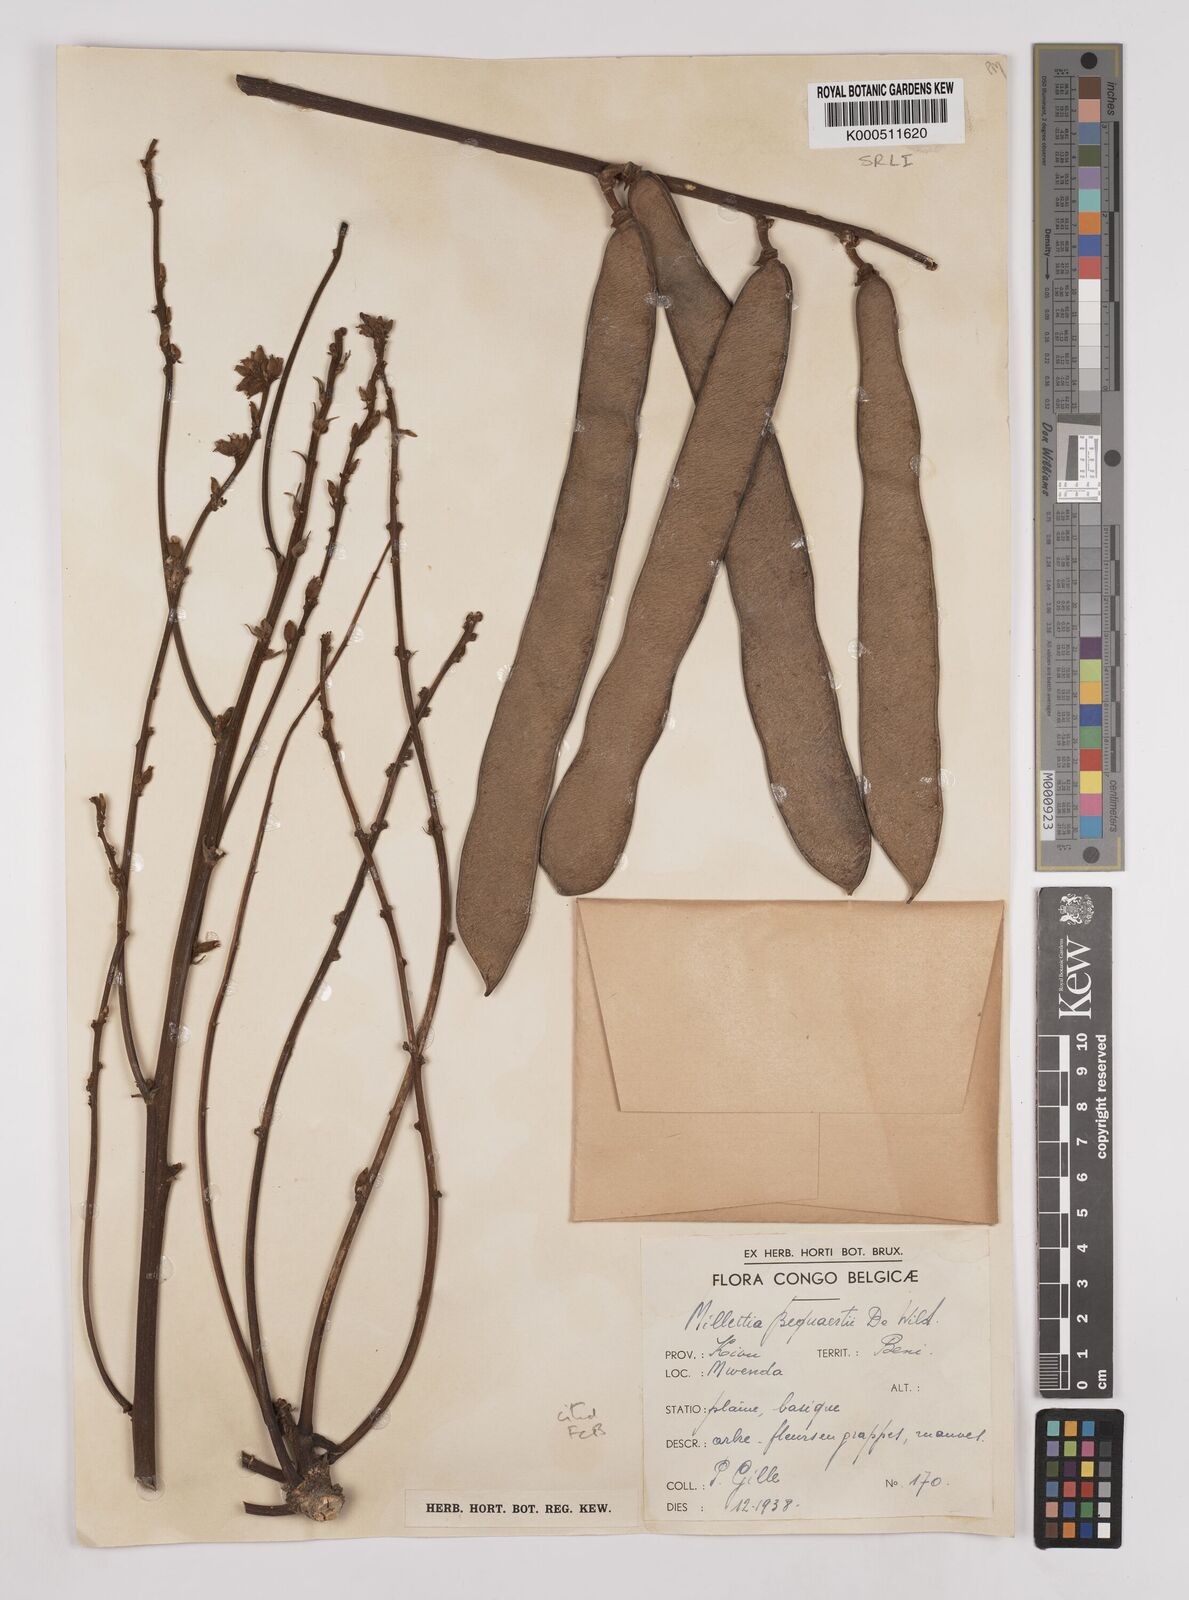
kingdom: Plantae
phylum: Tracheophyta
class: Magnoliopsida
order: Fabales
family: Fabaceae
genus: Millettia
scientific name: Millettia bequaertii
